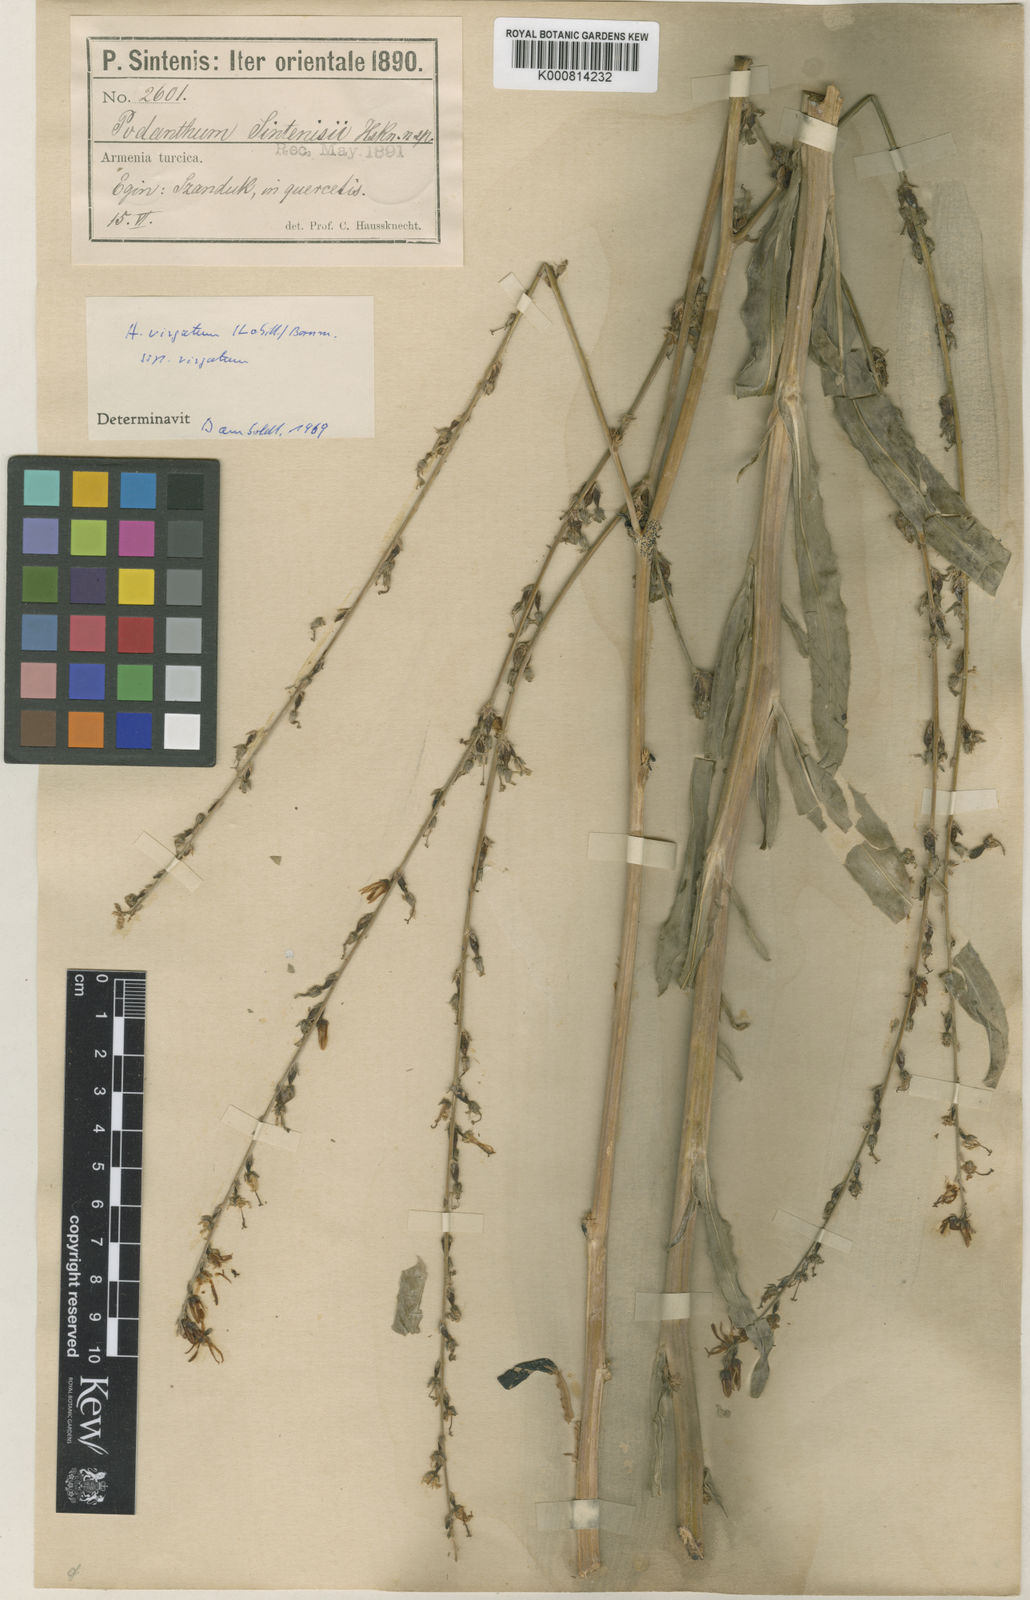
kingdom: Plantae
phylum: Tracheophyta
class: Magnoliopsida
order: Asterales
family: Campanulaceae
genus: Asyneuma
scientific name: Asyneuma virgatum
